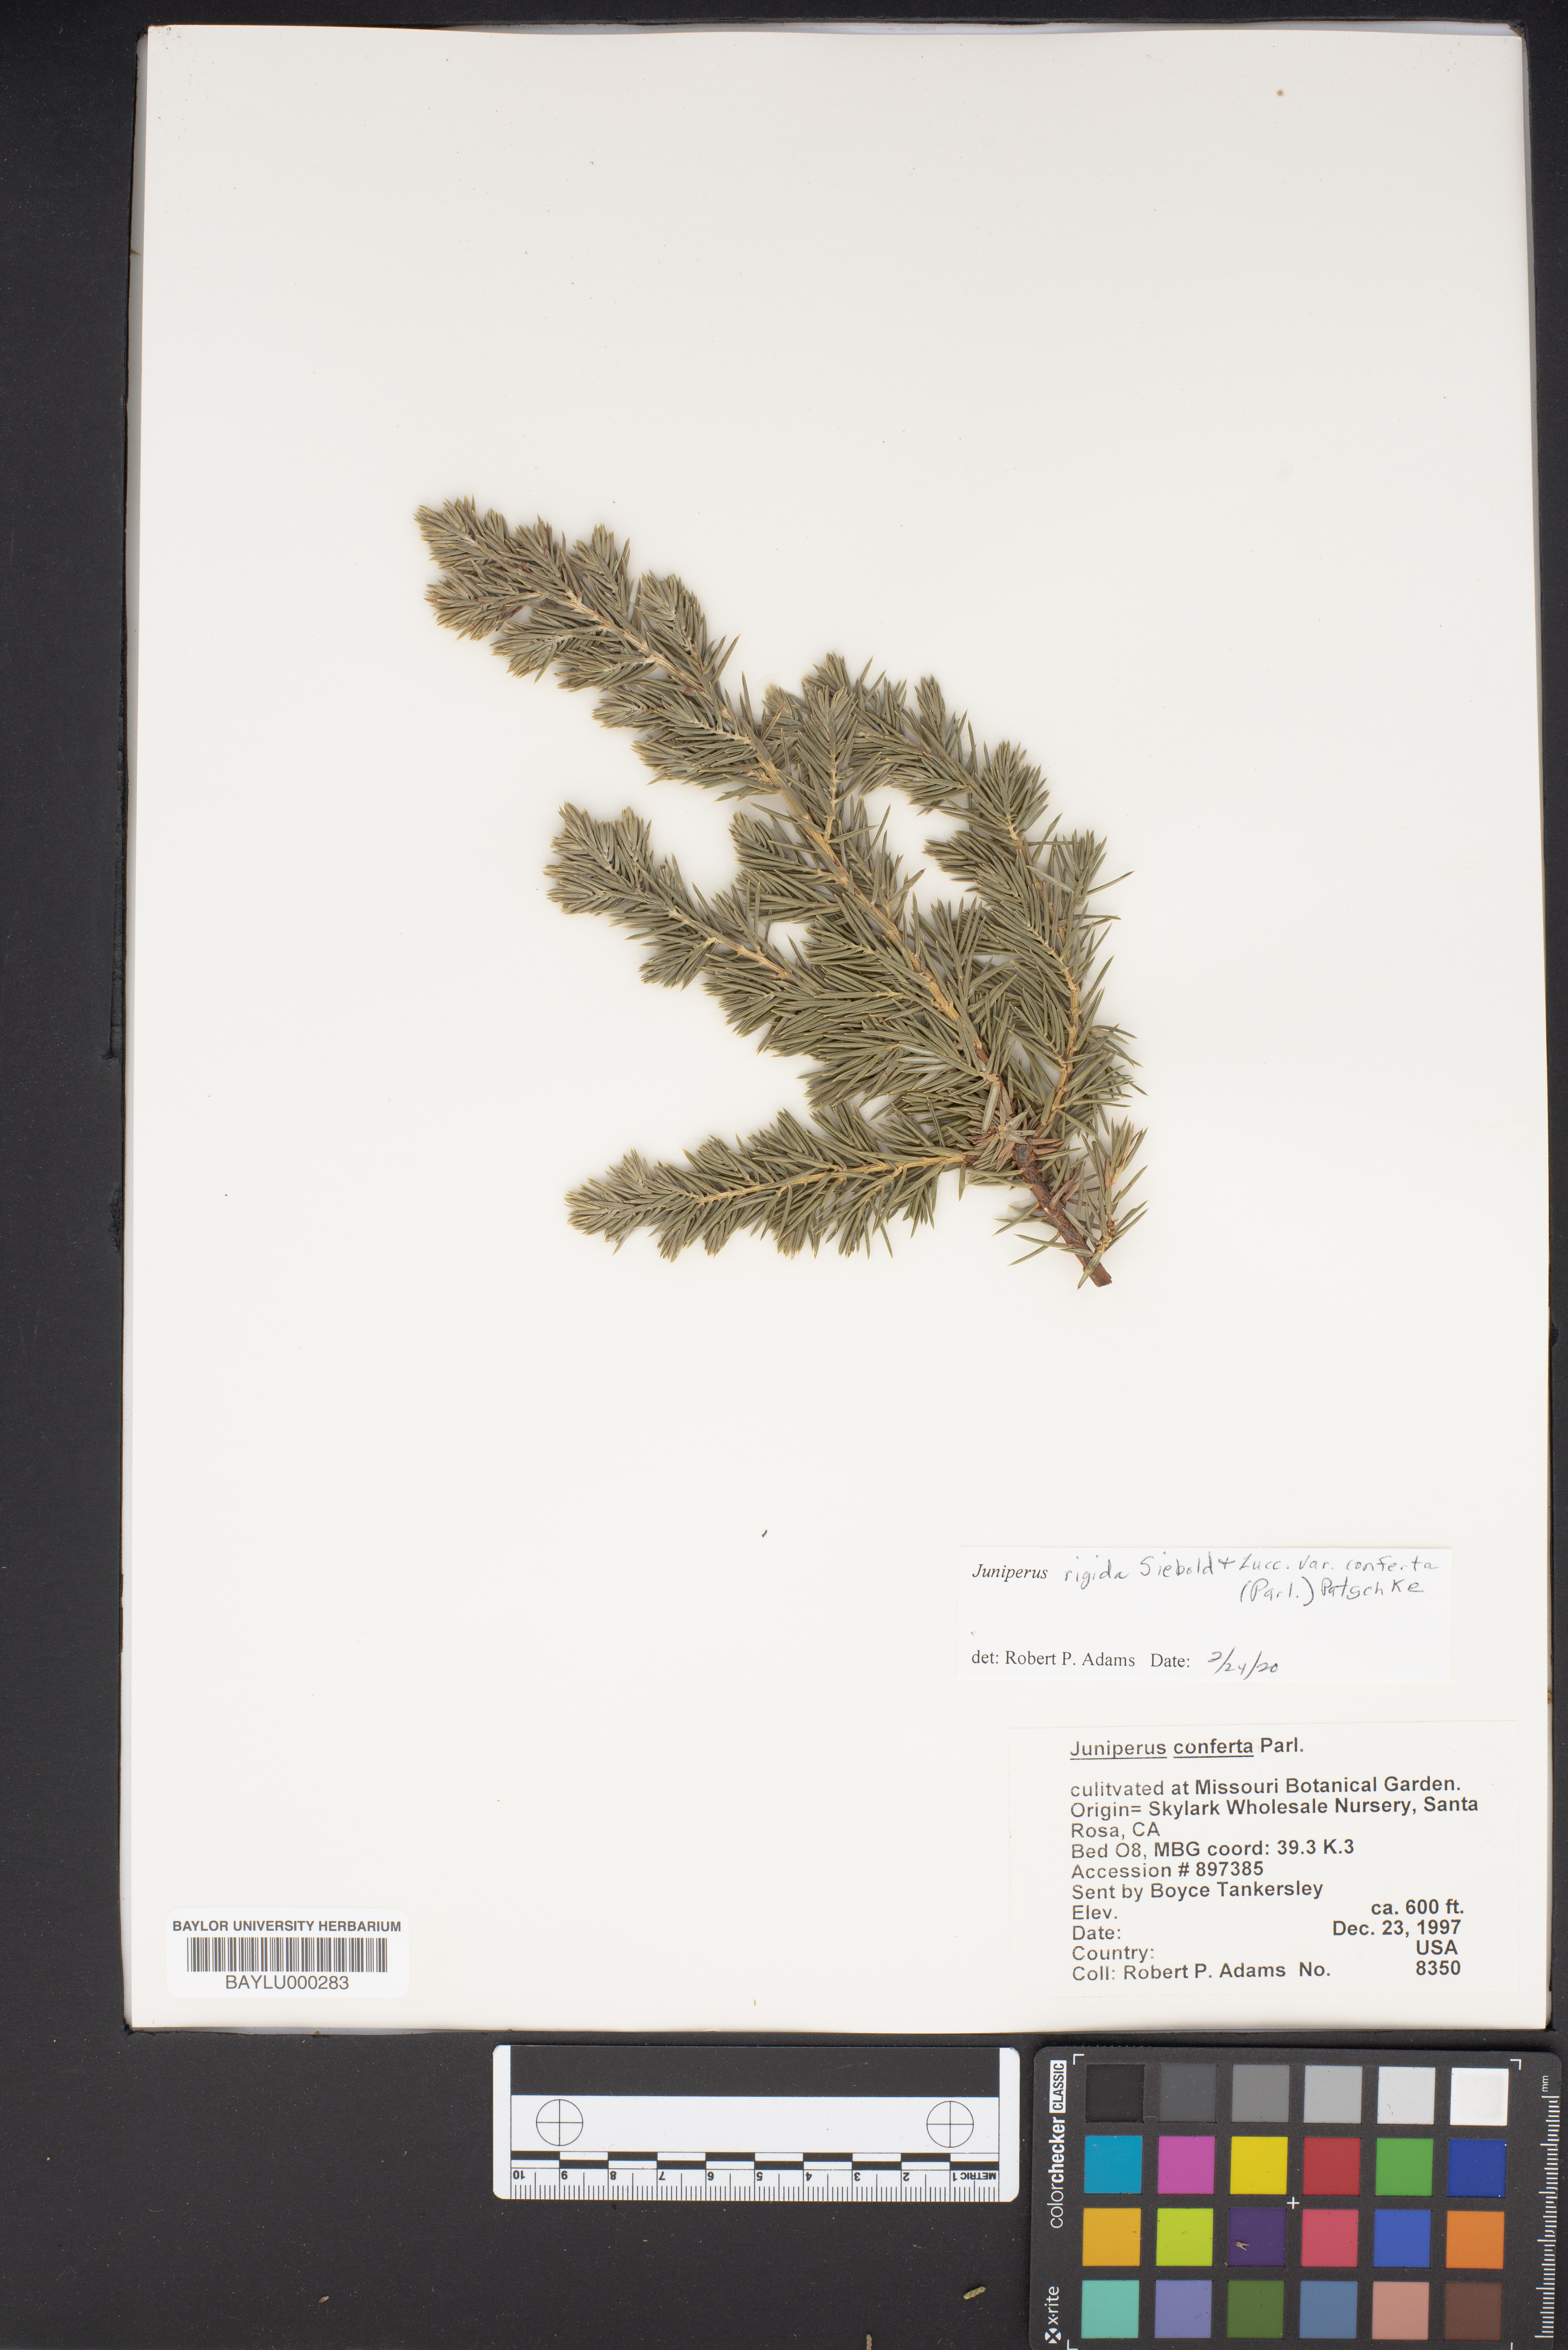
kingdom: Plantae
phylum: Tracheophyta
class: Pinopsida
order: Pinales
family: Cupressaceae
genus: Juniperus
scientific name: Juniperus rigida
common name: Needle juniper
